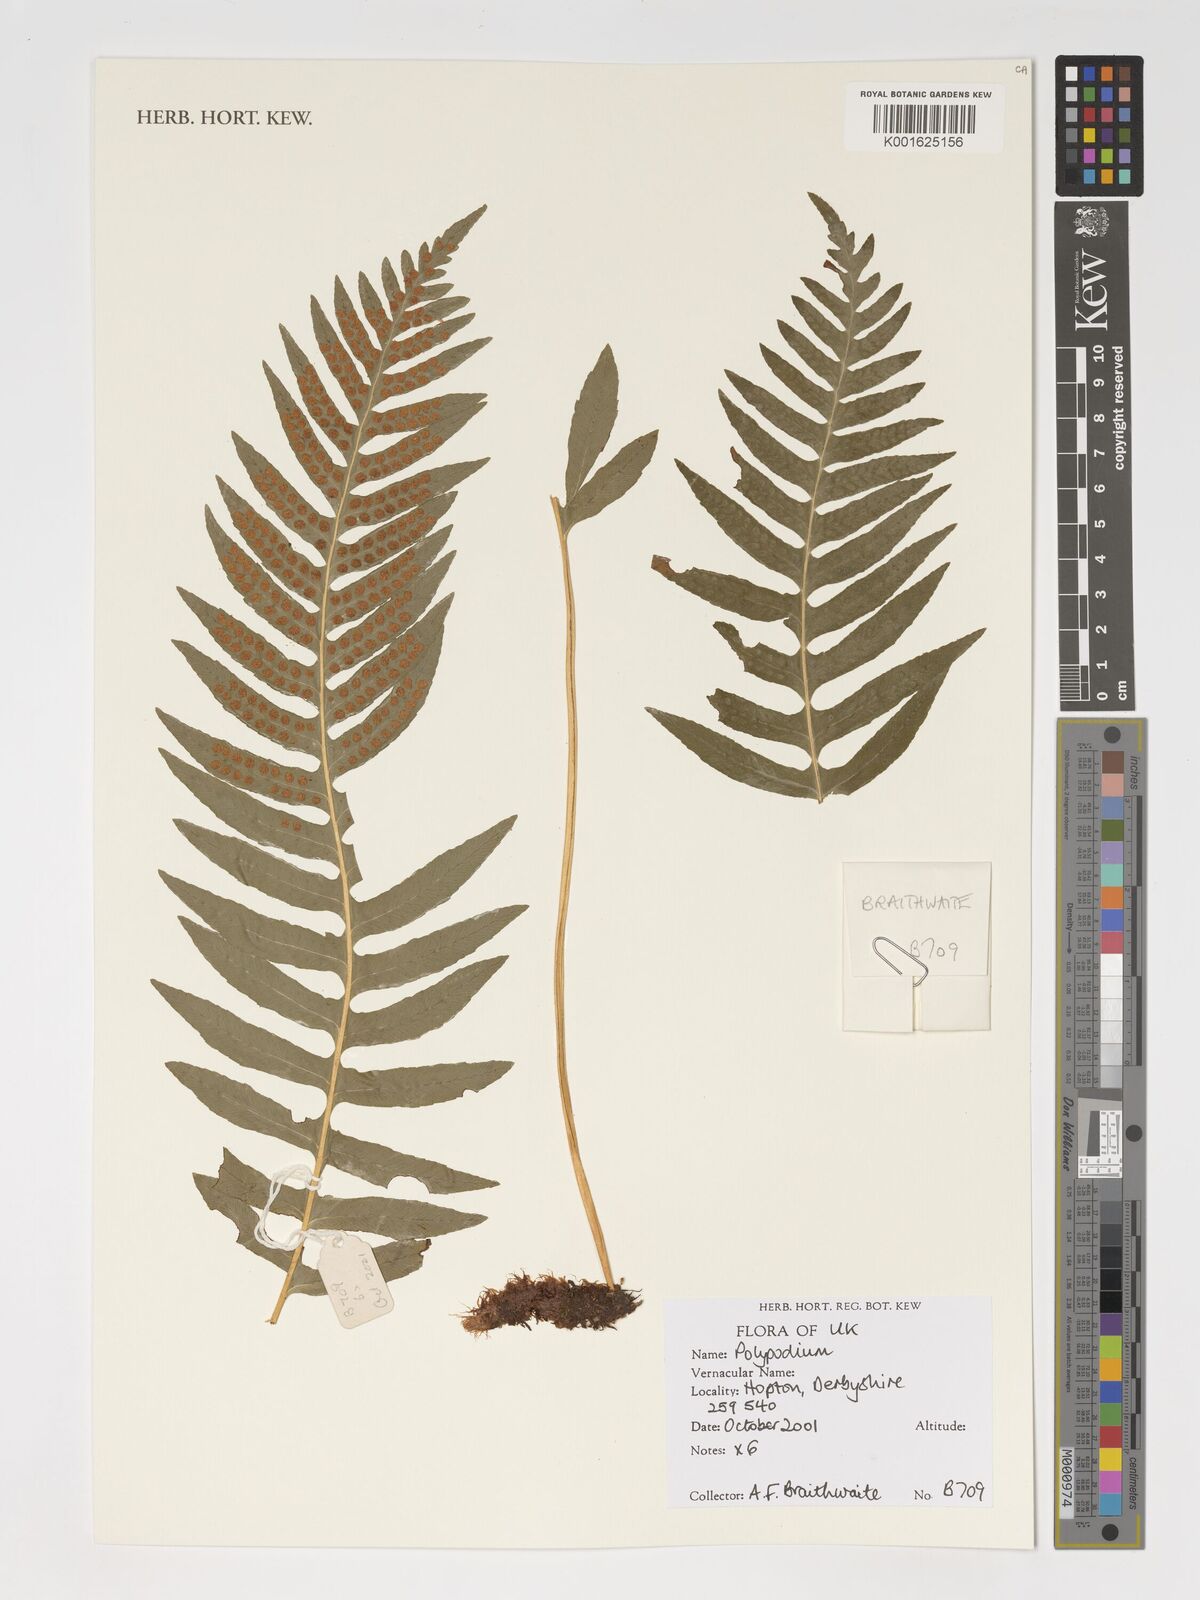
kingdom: Plantae
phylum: Tracheophyta
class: Polypodiopsida
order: Polypodiales
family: Polypodiaceae
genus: Polypodium
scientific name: Polypodium
